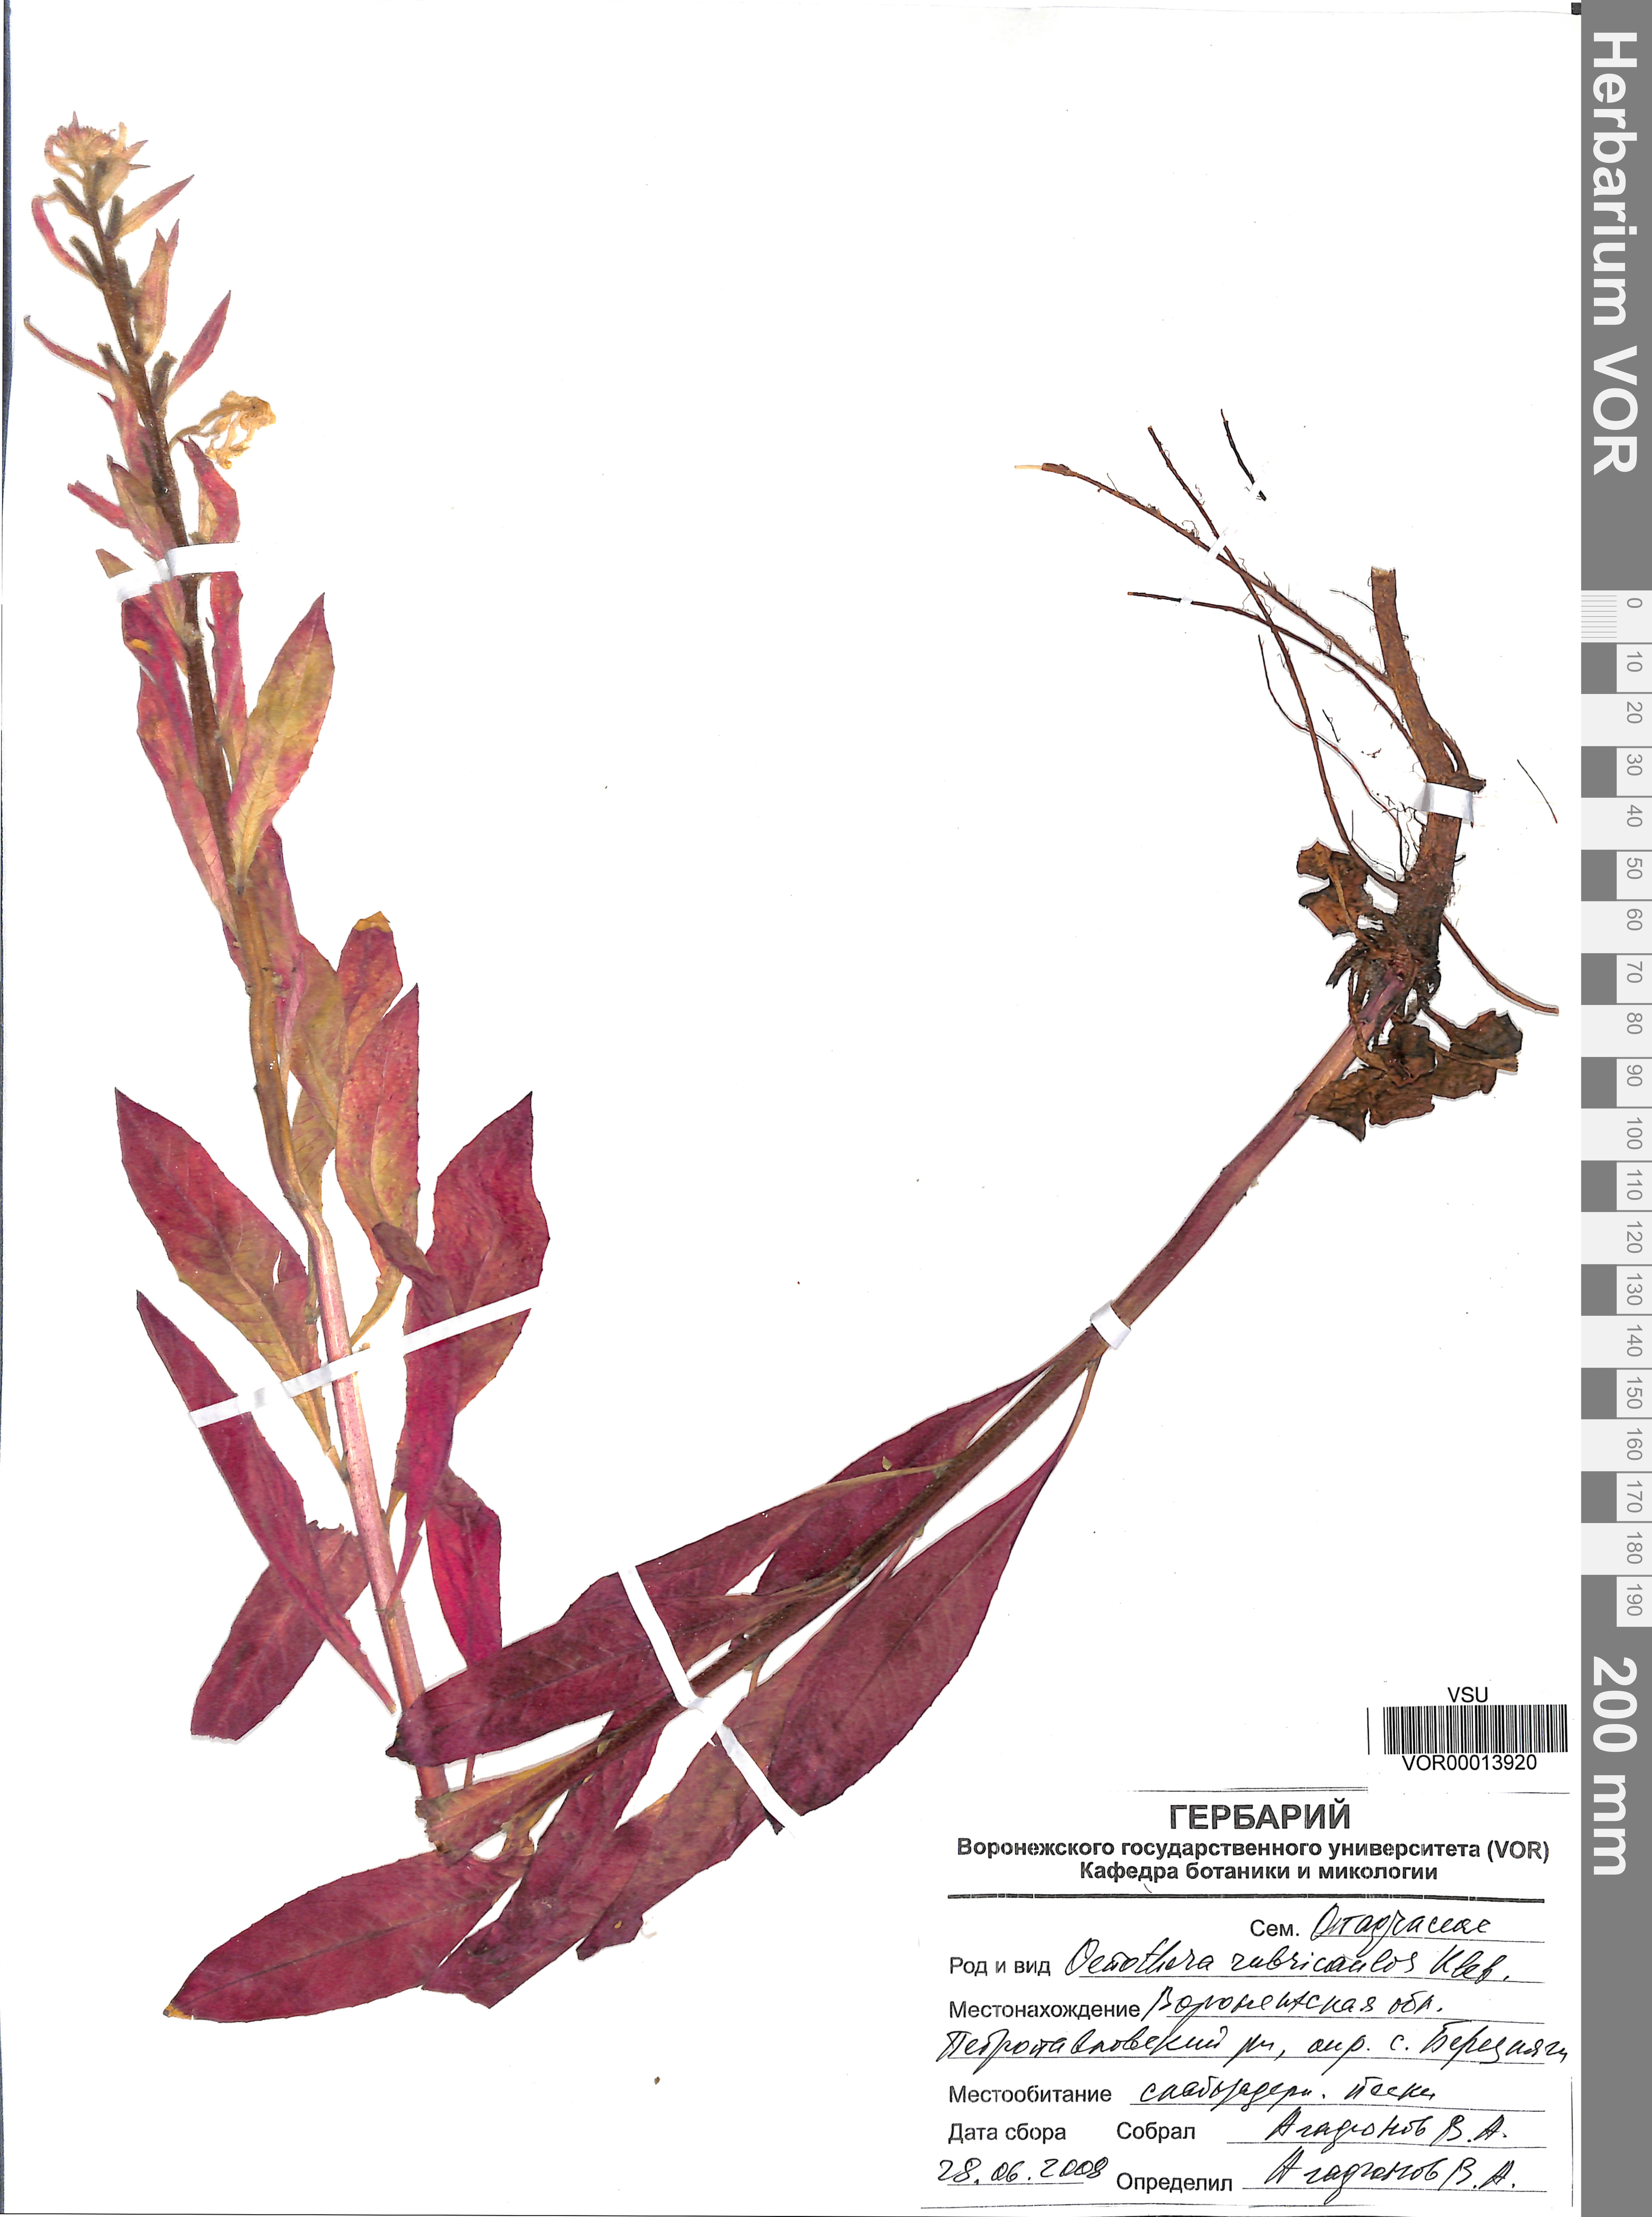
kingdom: Plantae
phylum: Tracheophyta
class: Magnoliopsida
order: Myrtales
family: Onagraceae
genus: Oenothera
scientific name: Oenothera rubricaulis
